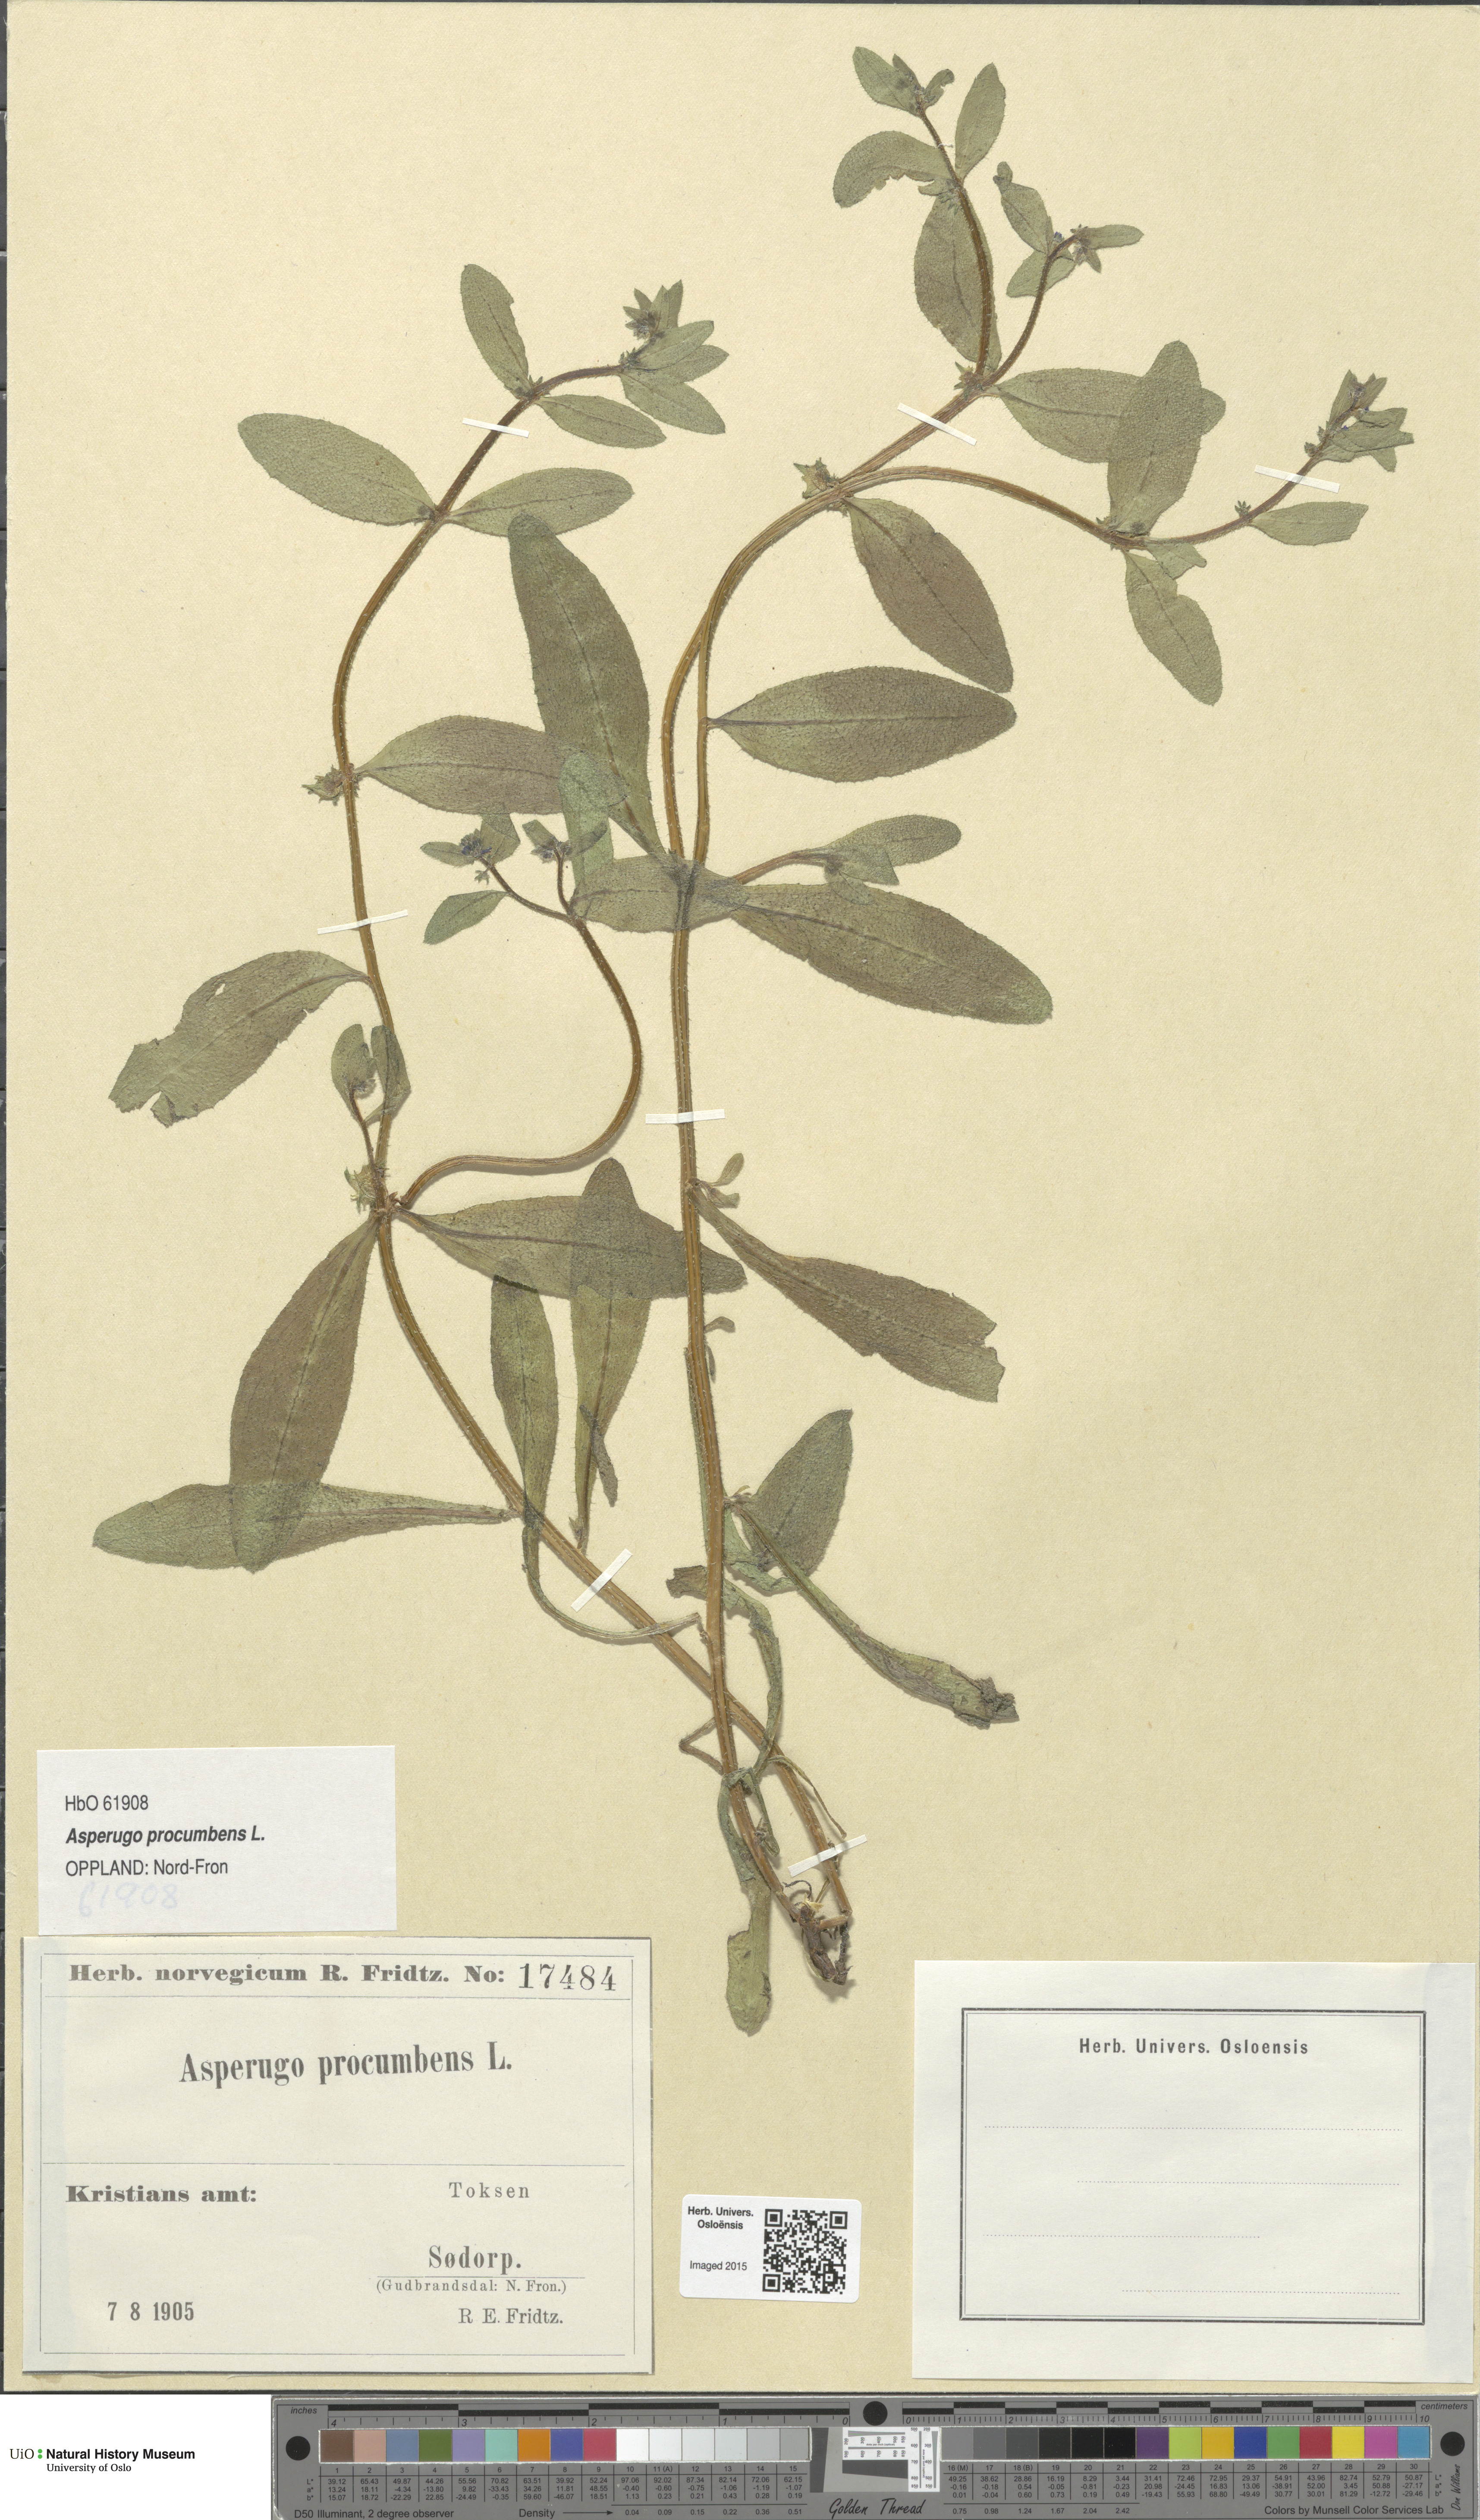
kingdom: Plantae
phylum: Tracheophyta
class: Magnoliopsida
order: Boraginales
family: Boraginaceae
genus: Asperugo
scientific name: Asperugo procumbens
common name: Madwort
